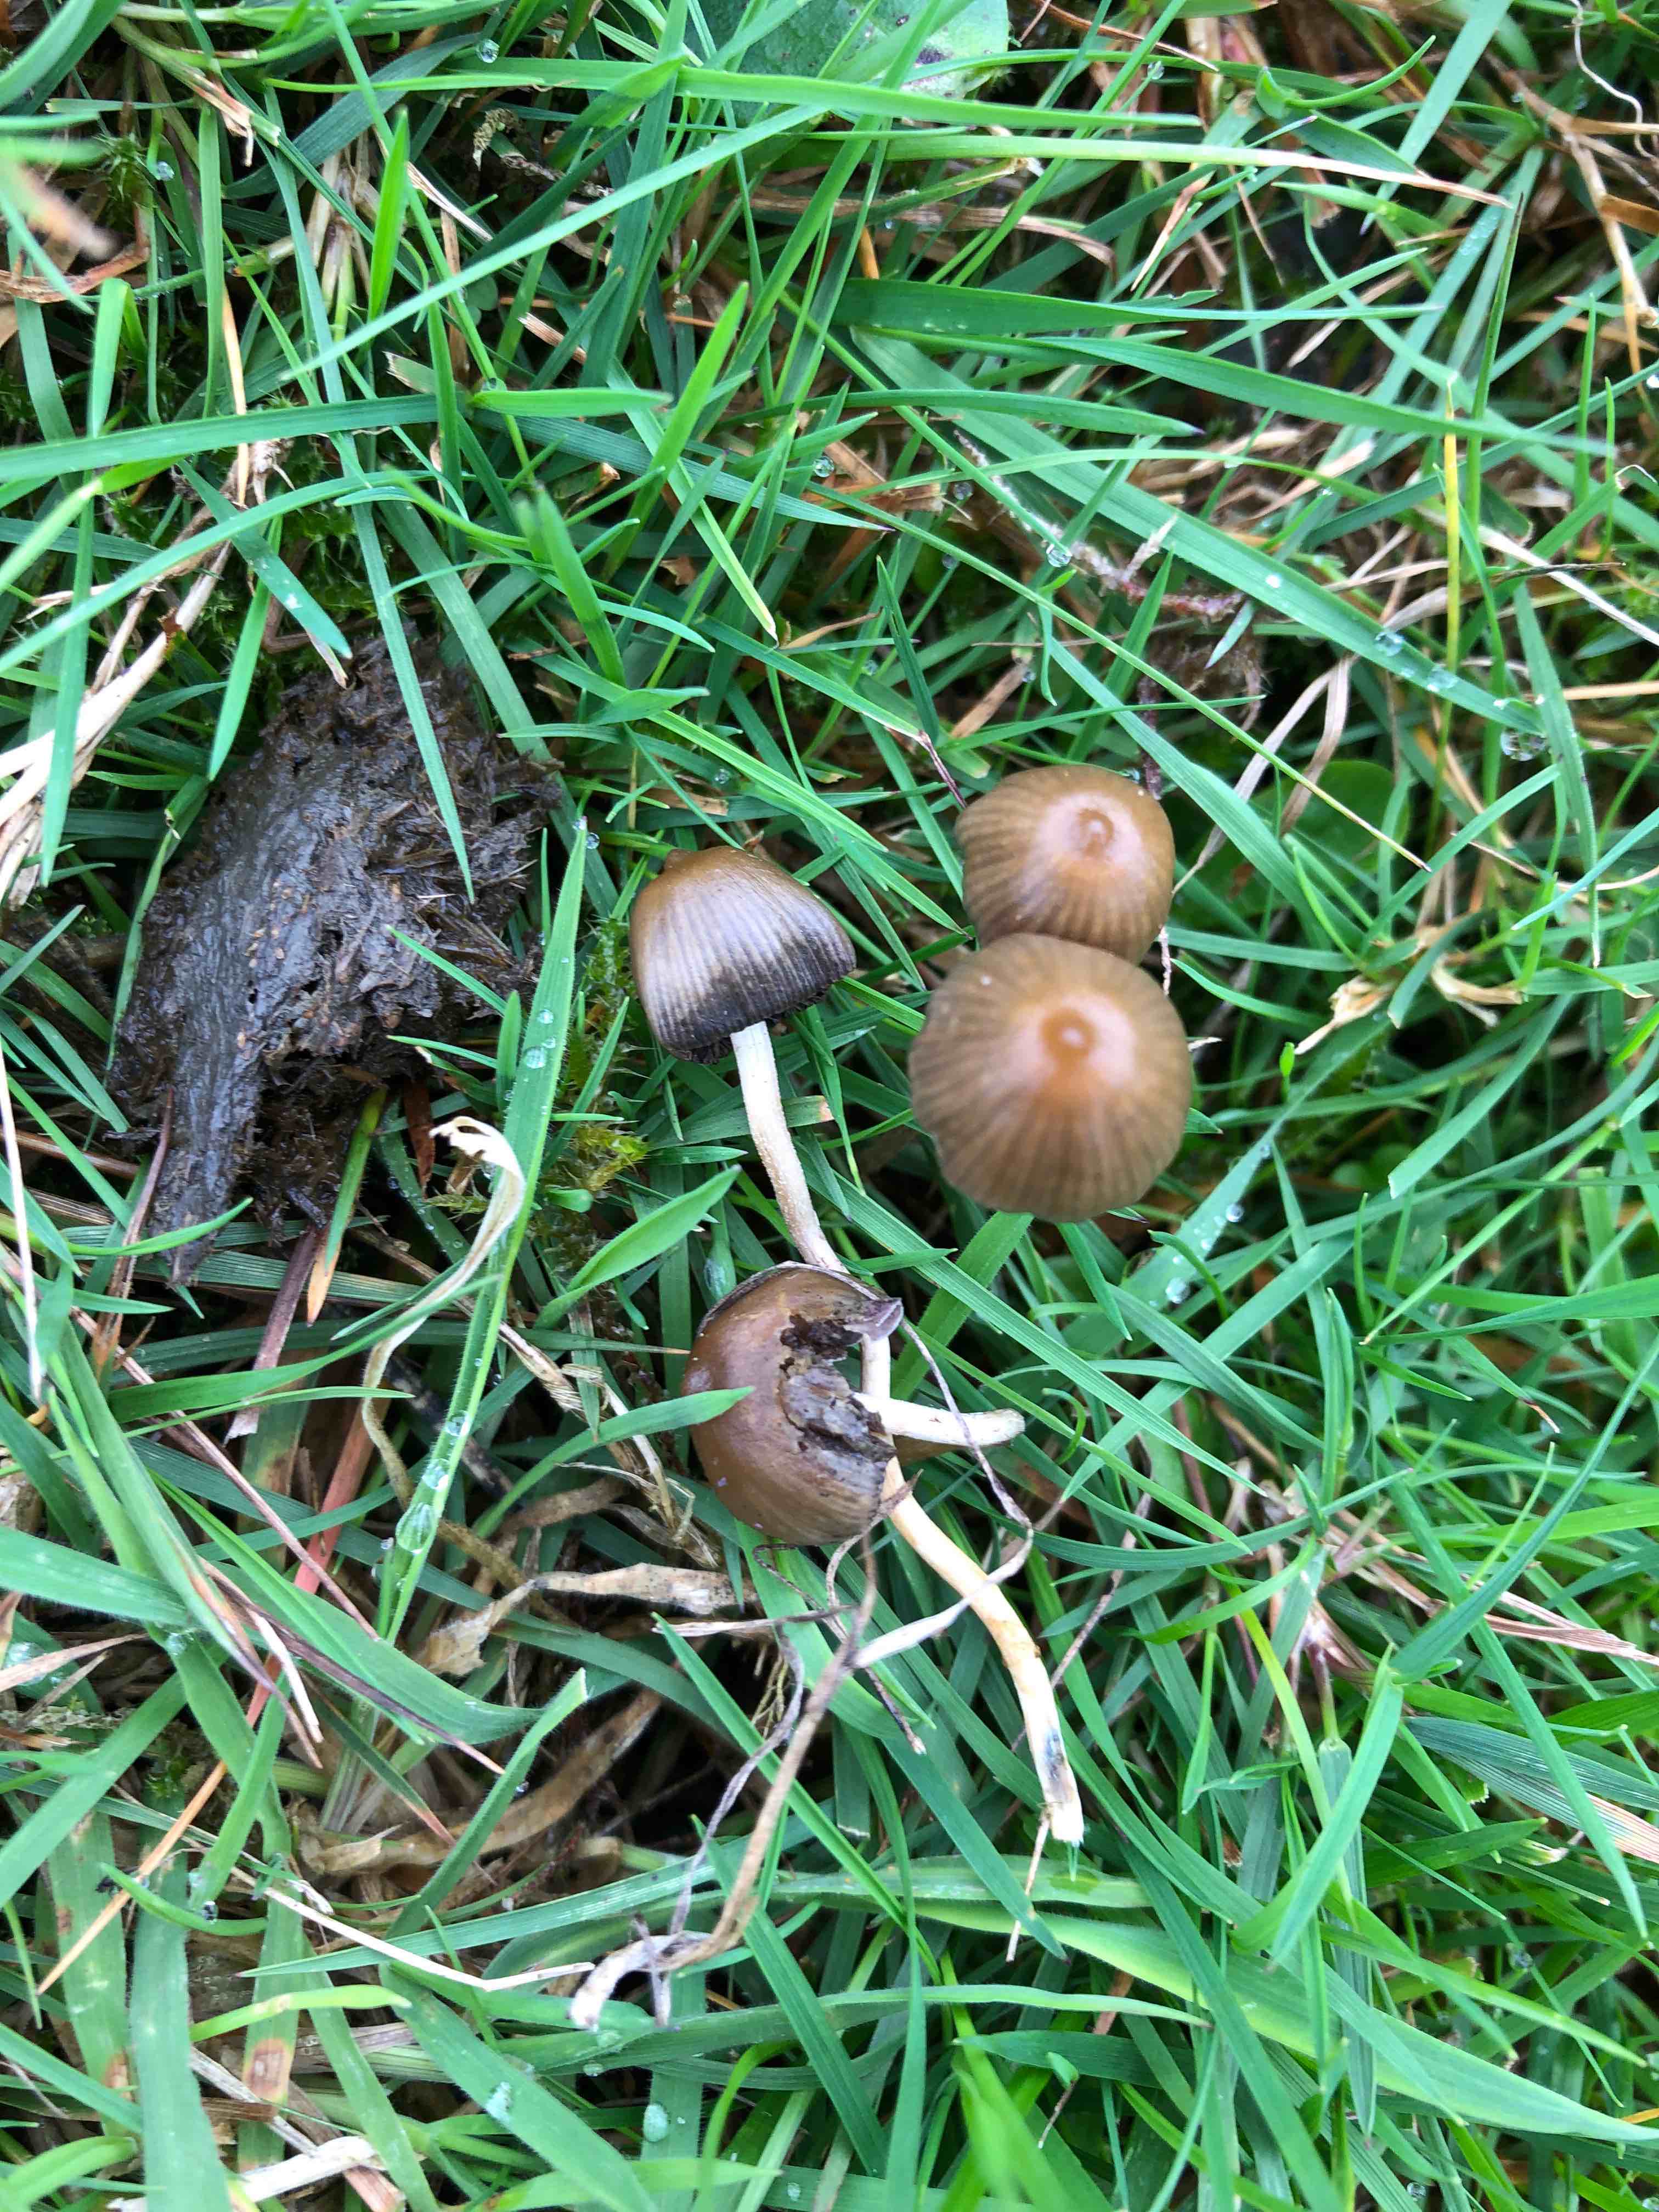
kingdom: Fungi
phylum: Basidiomycota
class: Agaricomycetes
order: Agaricales
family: Hymenogastraceae
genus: Psilocybe
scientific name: Psilocybe semilanceata
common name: spids nøgenhat
